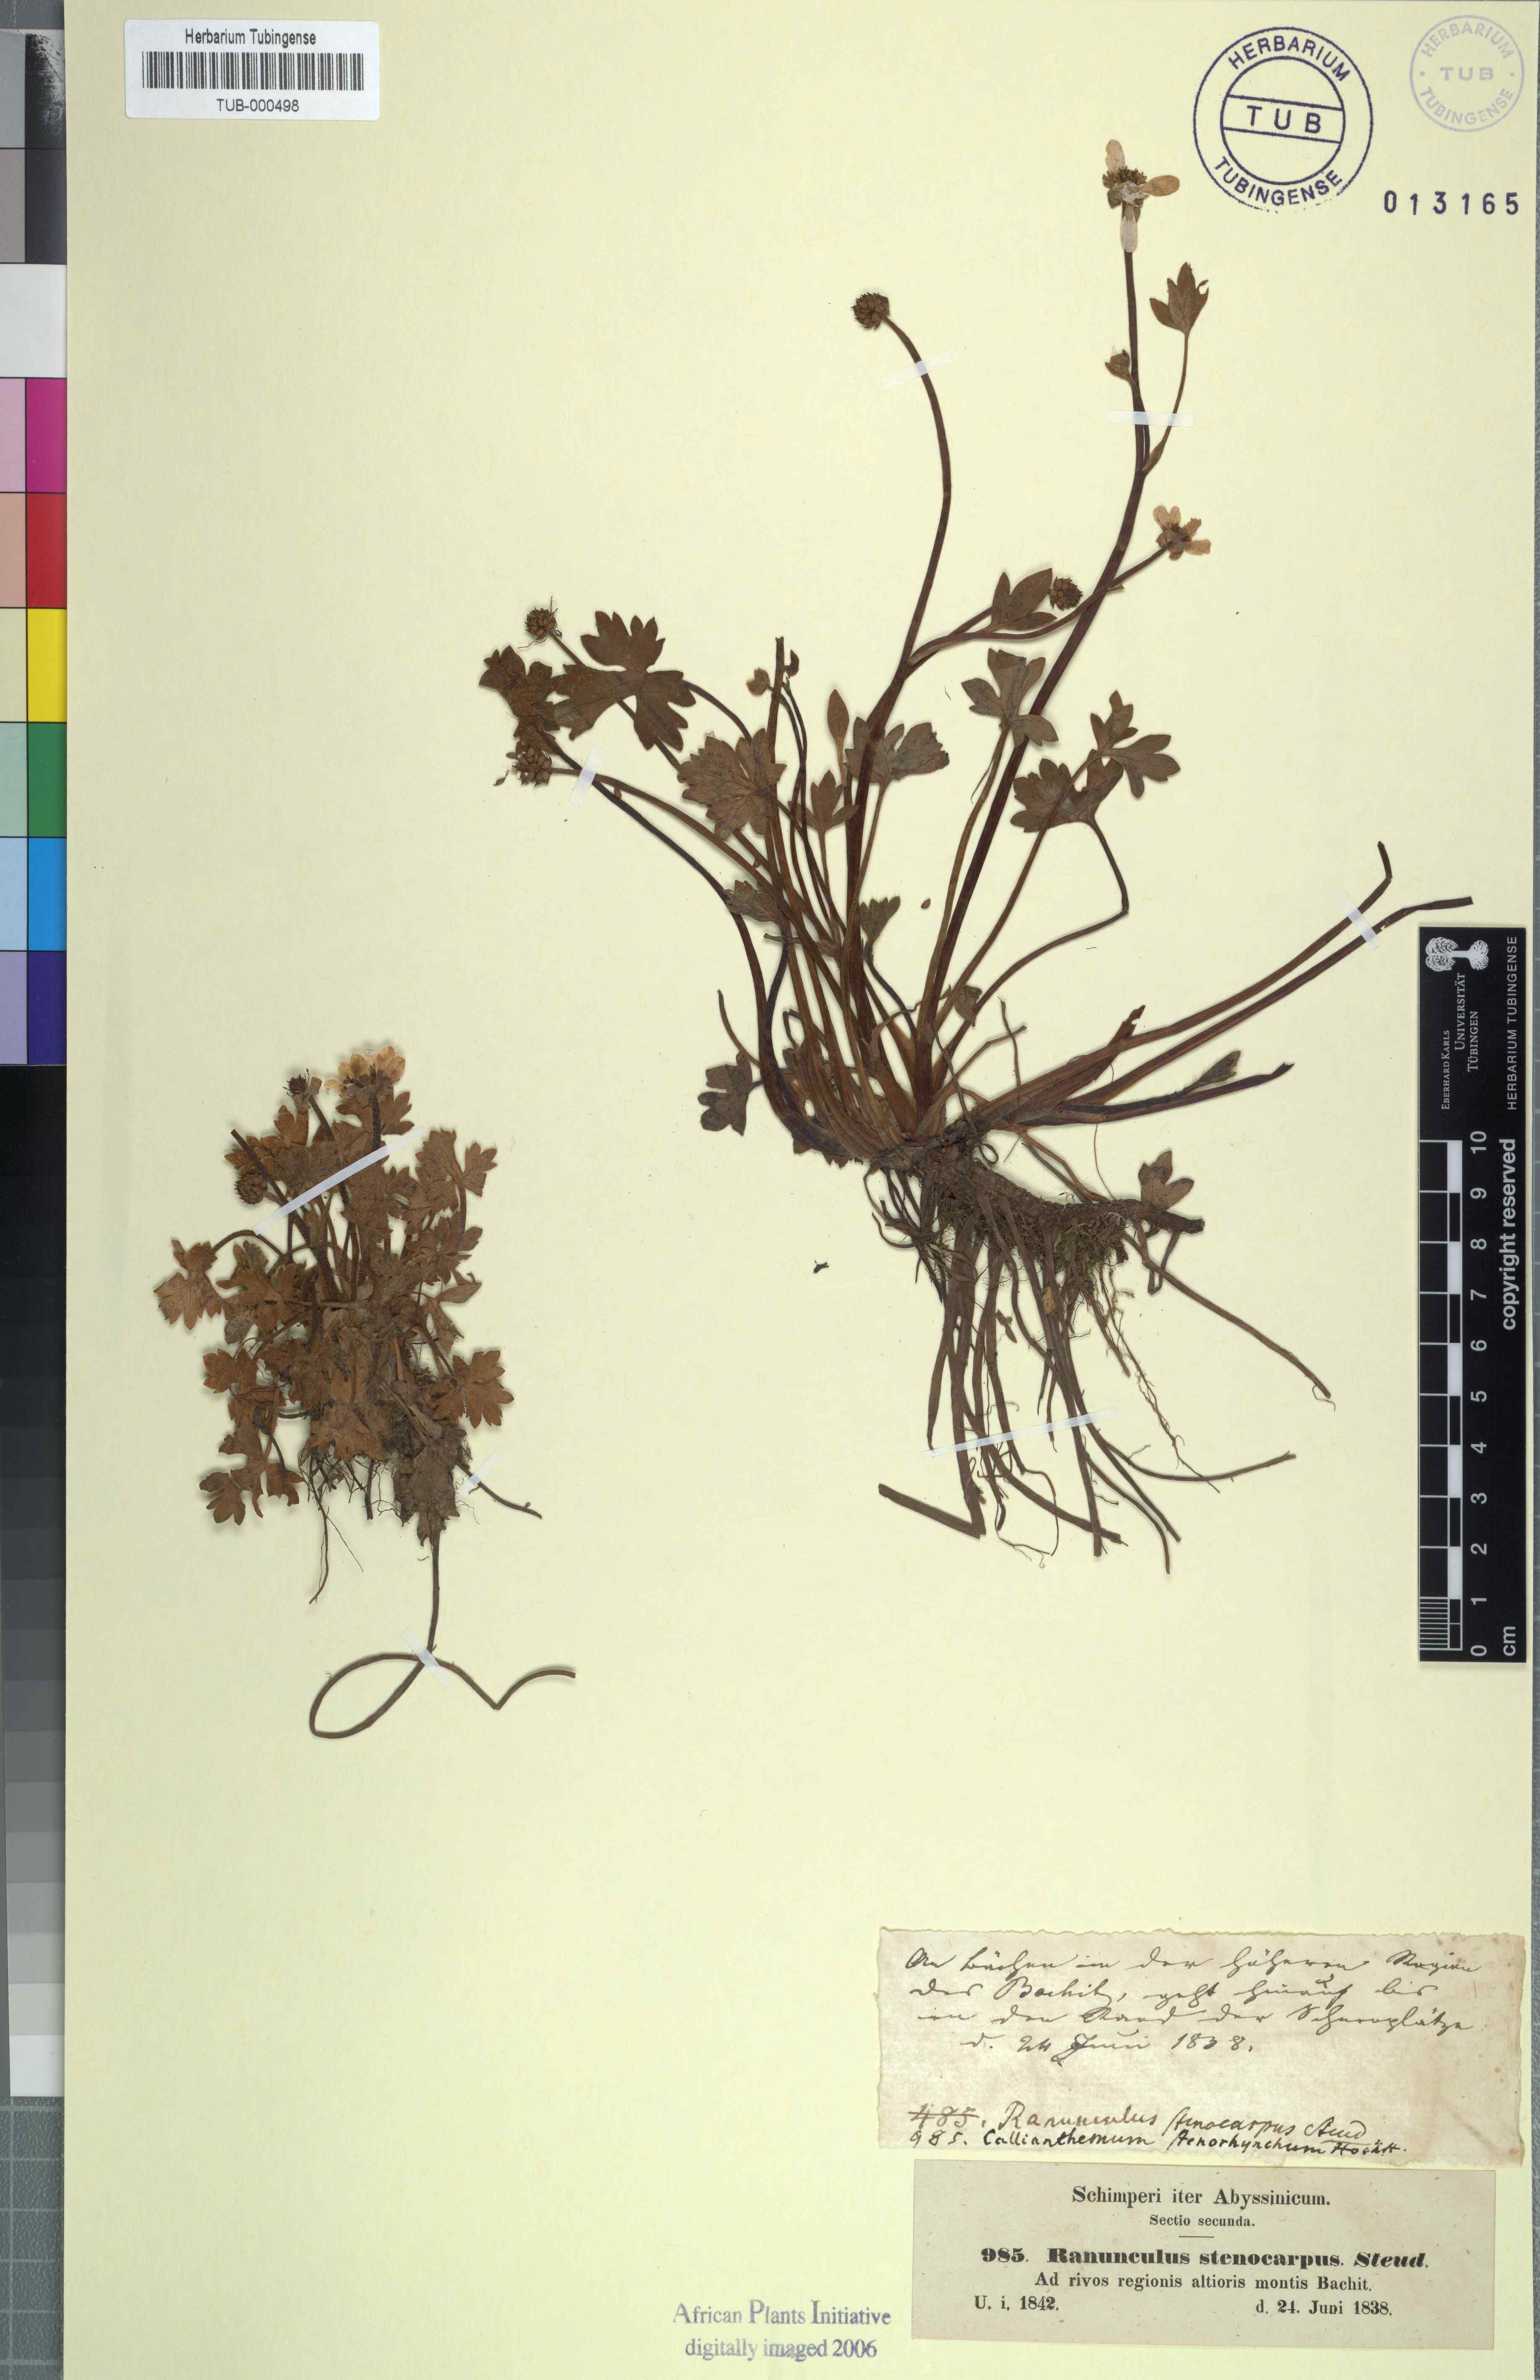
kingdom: Plantae
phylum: Tracheophyta
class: Magnoliopsida
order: Ranunculales
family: Ranunculaceae
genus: Ranunculus
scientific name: Ranunculus tembensis
